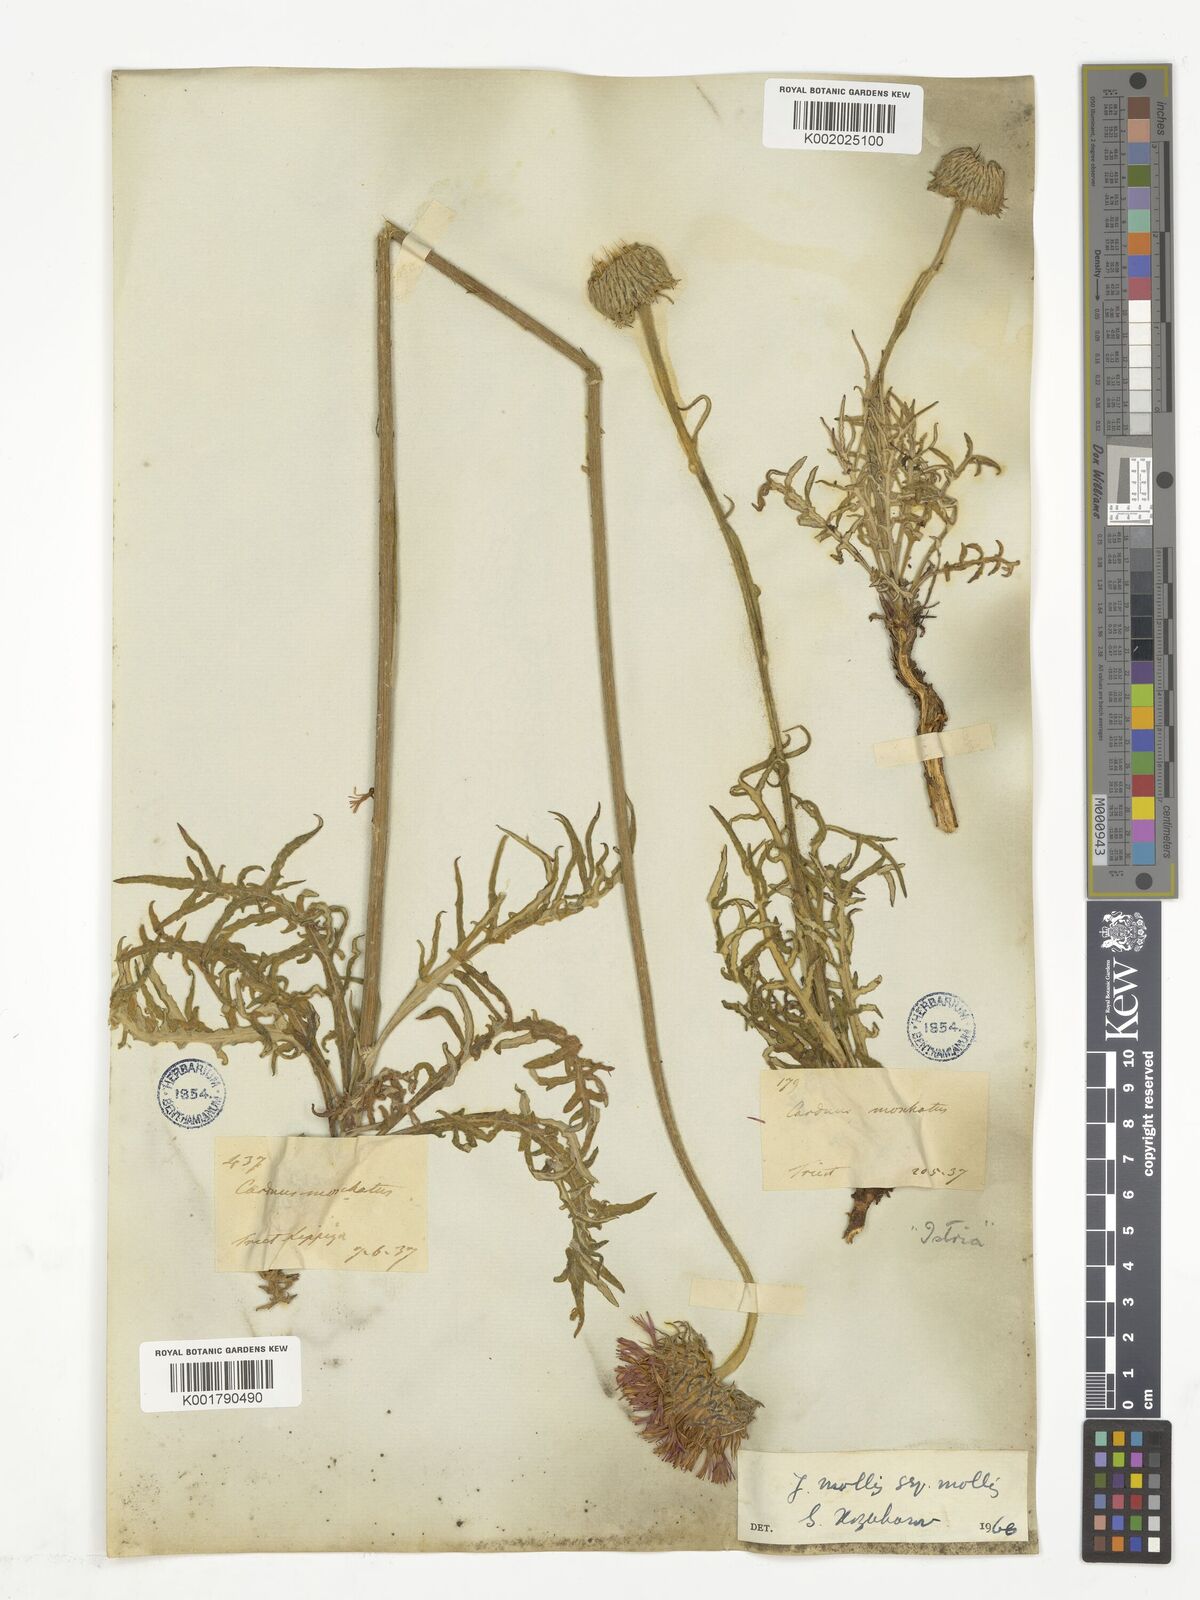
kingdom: Plantae
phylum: Tracheophyta
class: Magnoliopsida
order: Asterales
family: Asteraceae
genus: Jurinea
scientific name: Jurinea mollis
